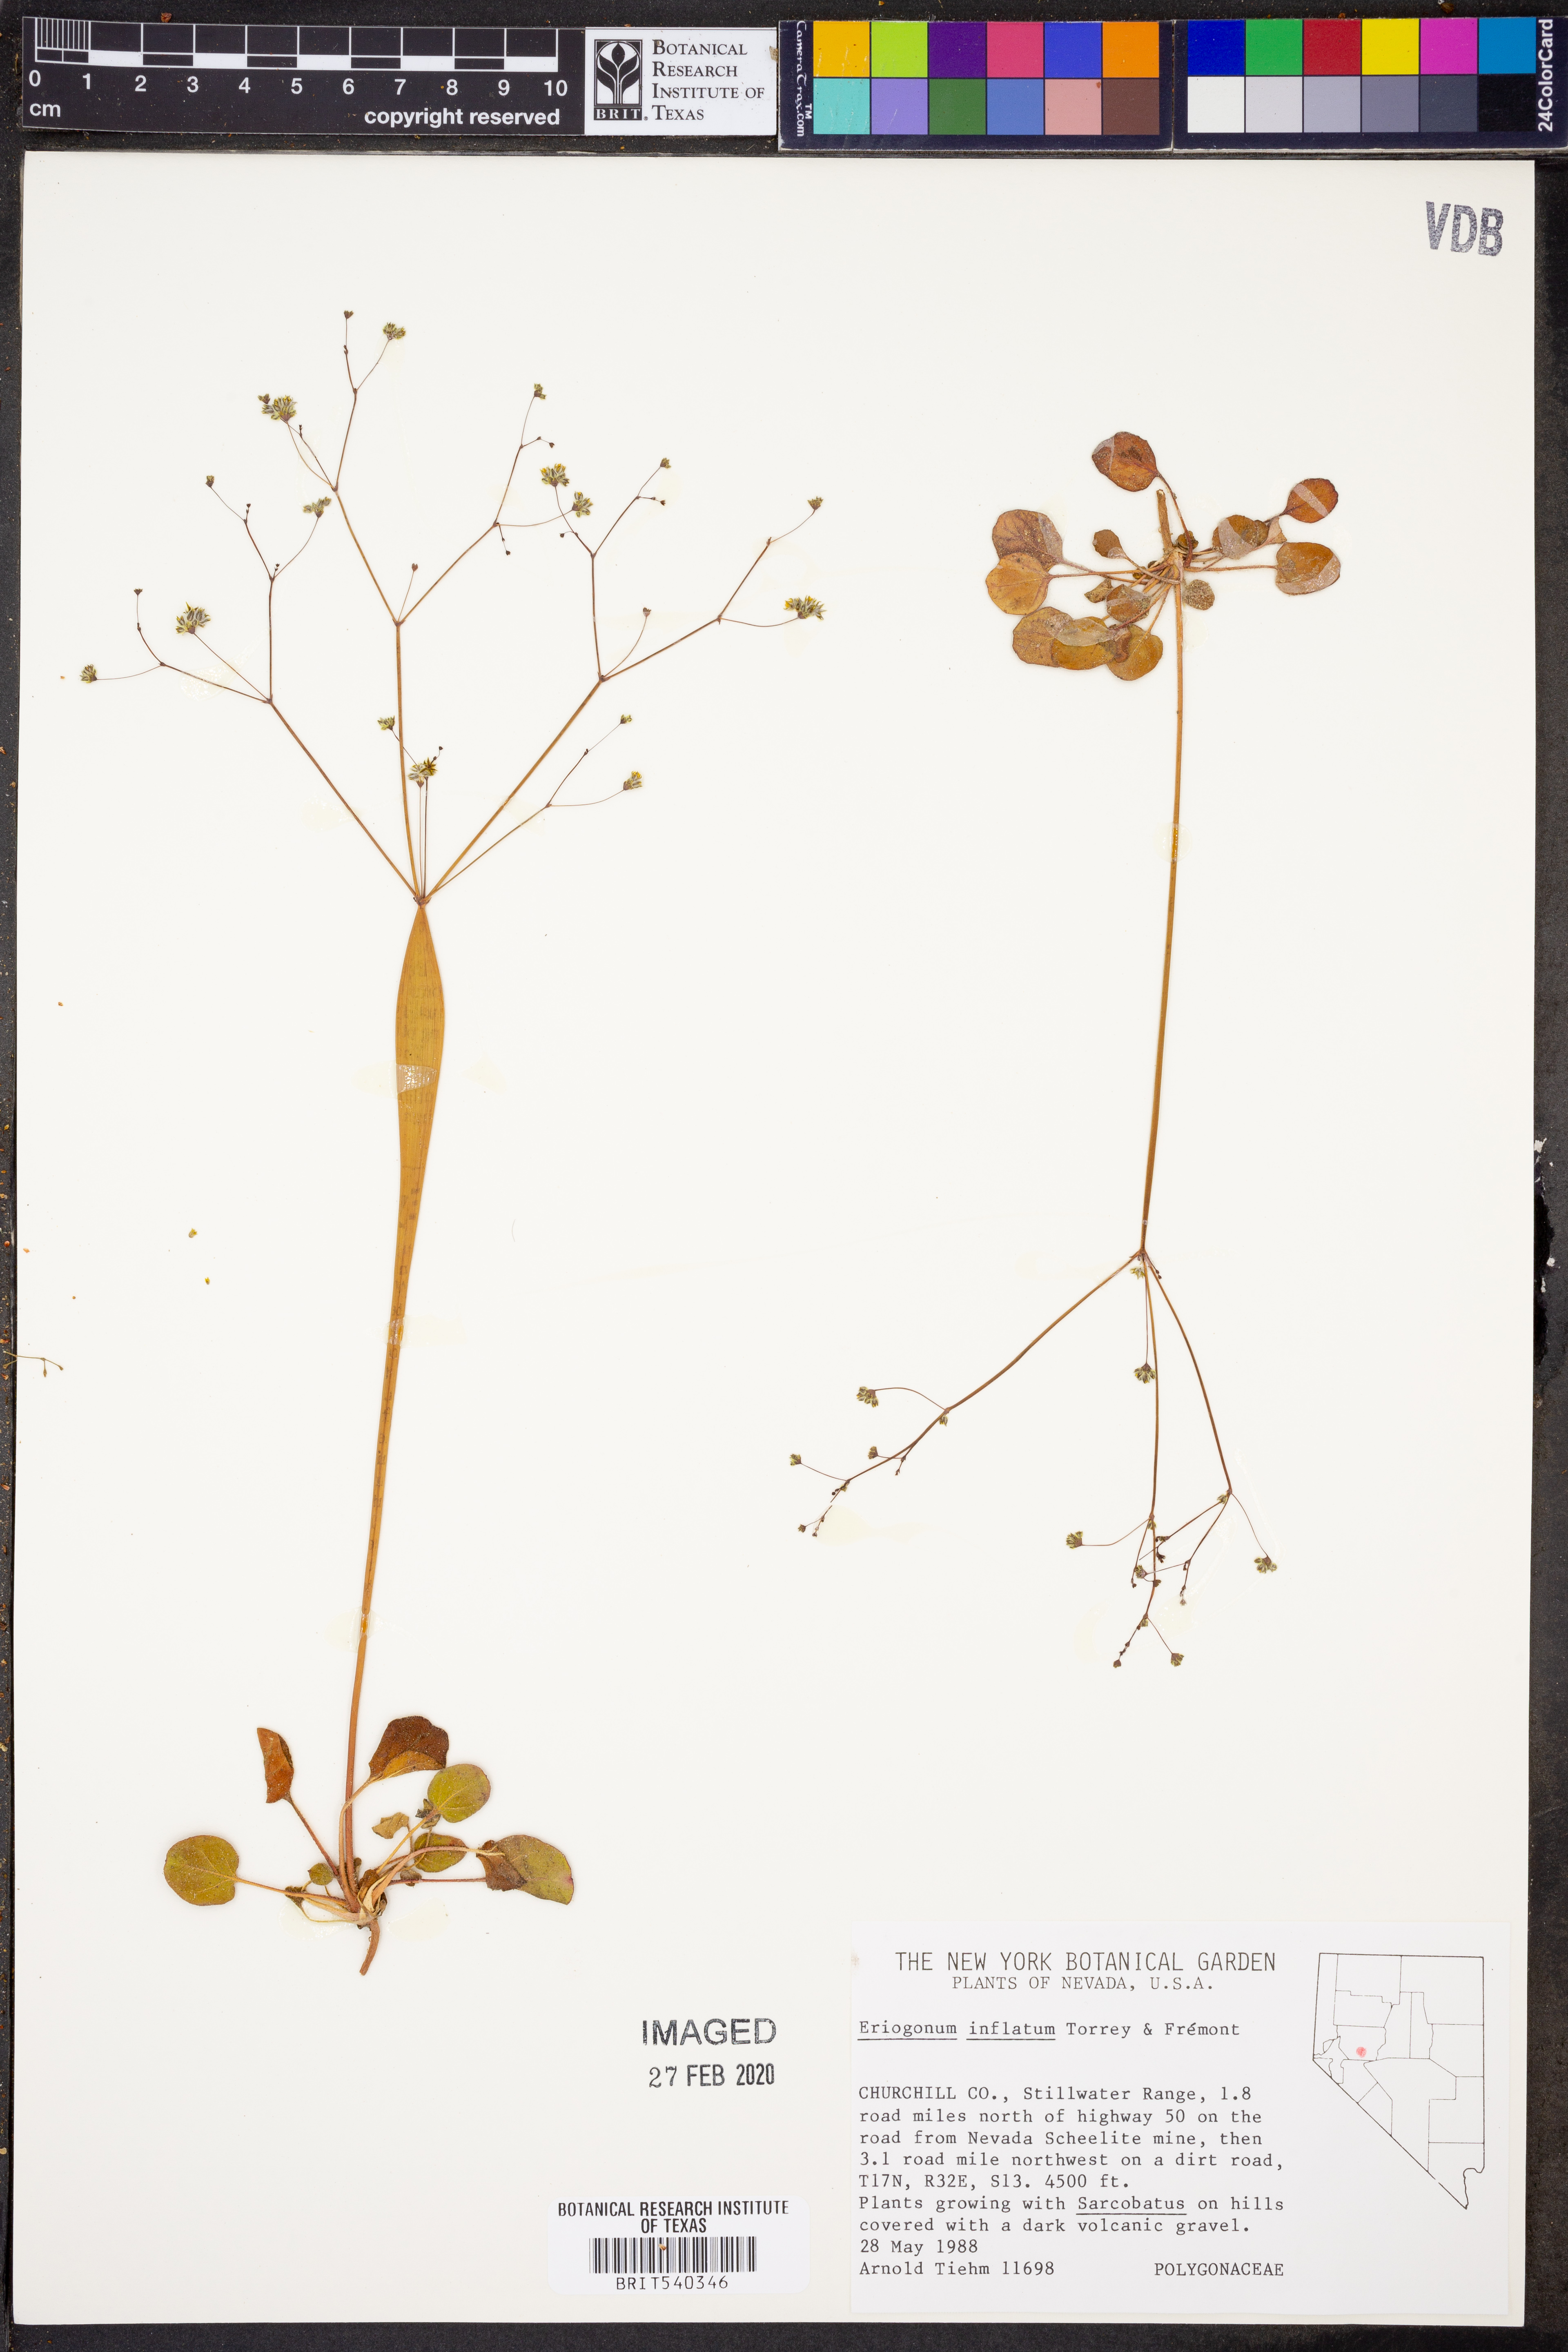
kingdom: Plantae
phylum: Tracheophyta
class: Magnoliopsida
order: Caryophyllales
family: Polygonaceae
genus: Eriogonum
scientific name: Eriogonum inflatum
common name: Desert trumpet
